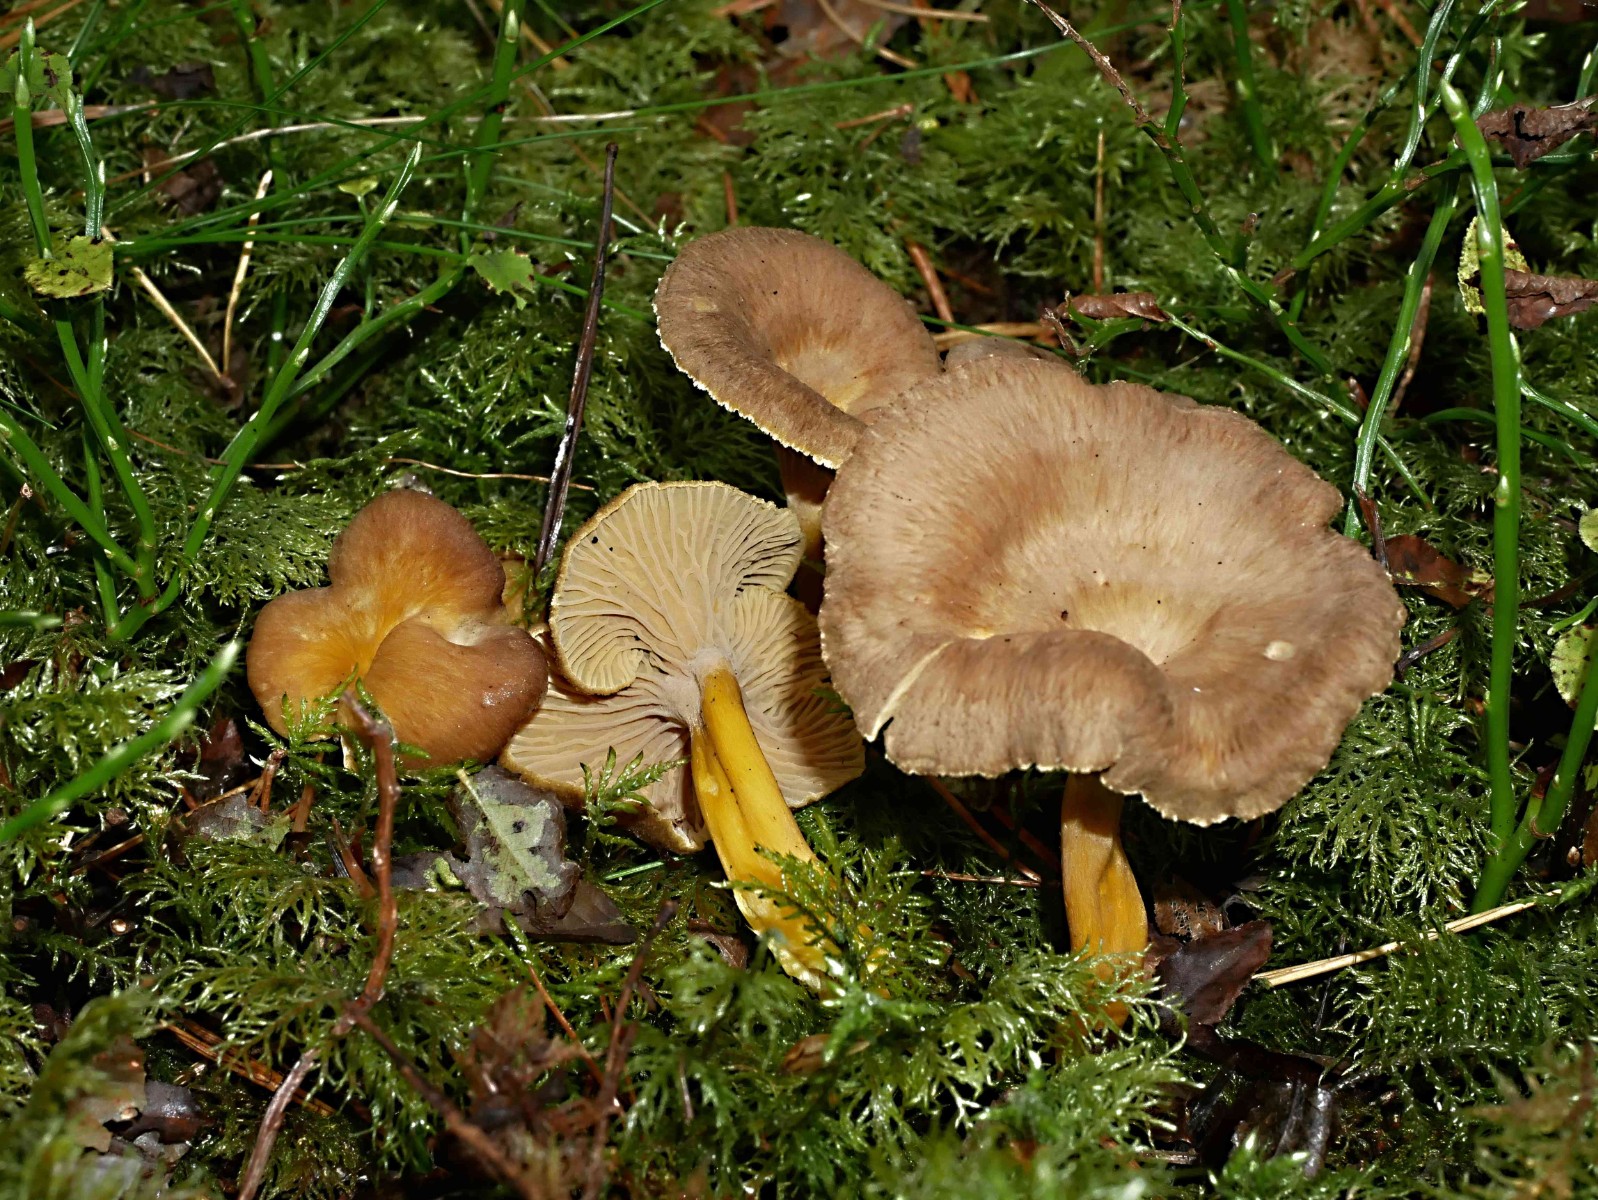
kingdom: Fungi
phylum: Basidiomycota
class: Agaricomycetes
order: Cantharellales
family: Hydnaceae
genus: Craterellus
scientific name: Craterellus tubaeformis
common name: tragt-kantarel
